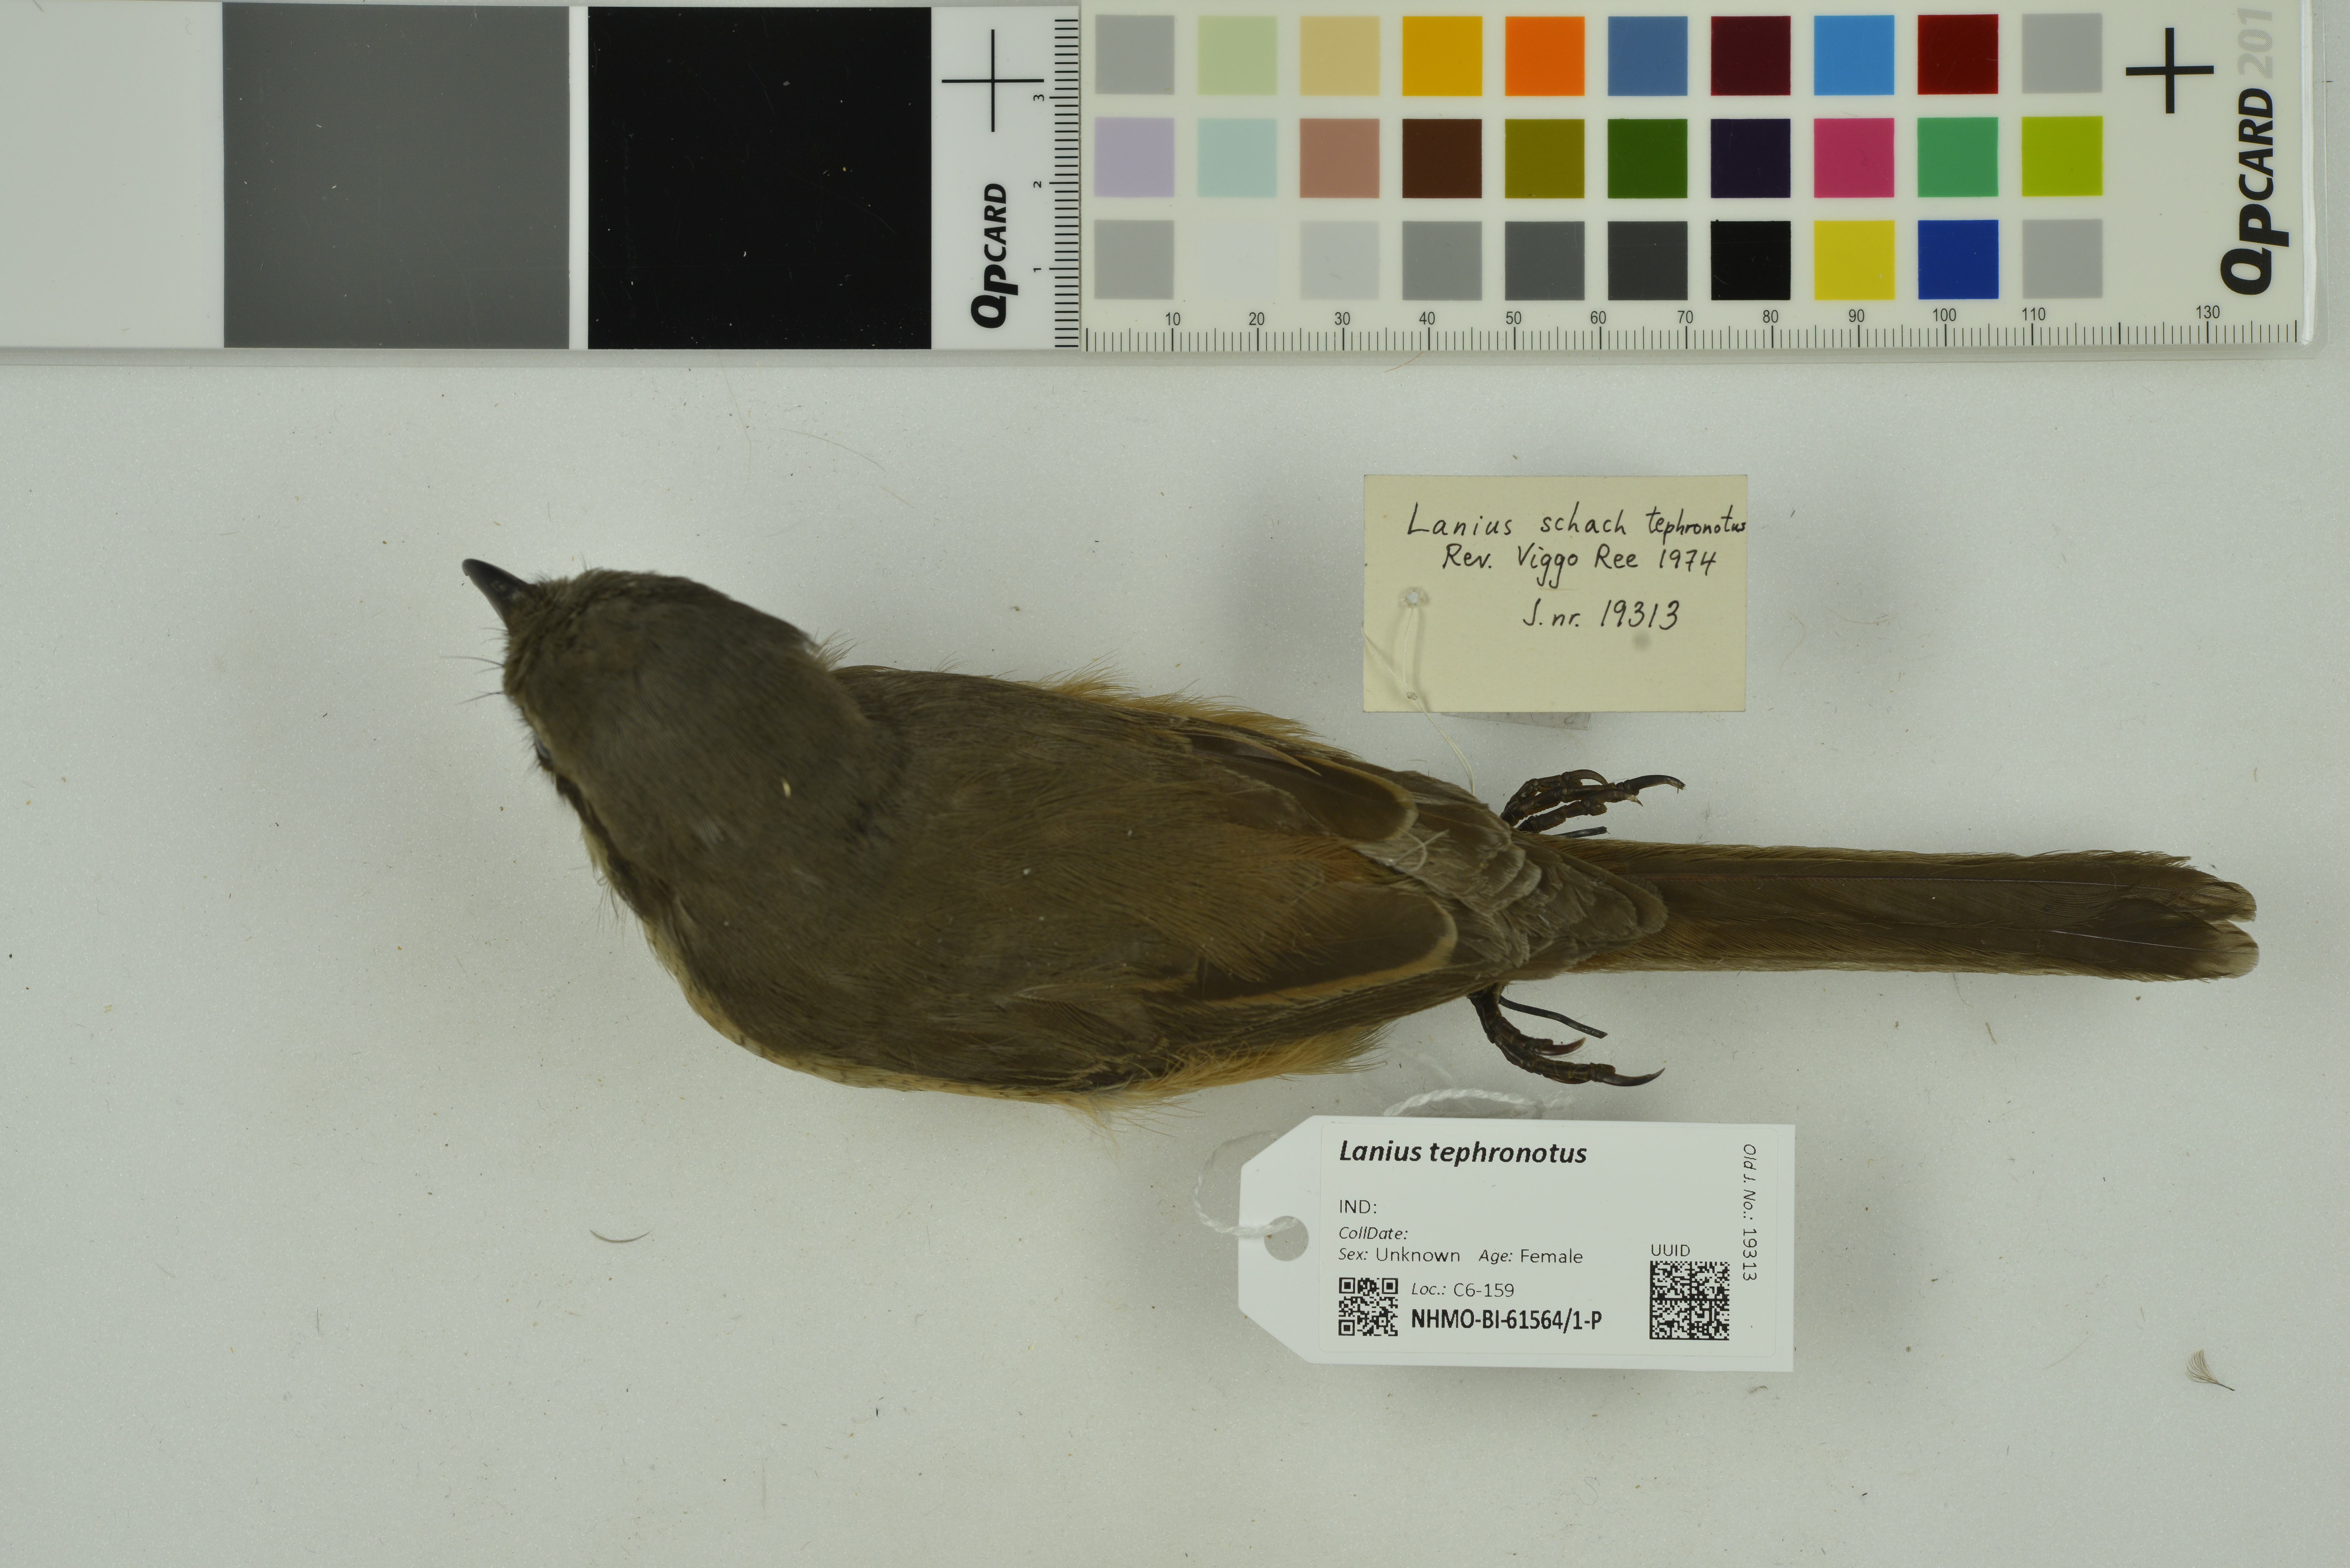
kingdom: Animalia
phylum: Chordata
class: Aves
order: Passeriformes
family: Laniidae
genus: Lanius
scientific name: Lanius tephronotus
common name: Grey-backed shrike
